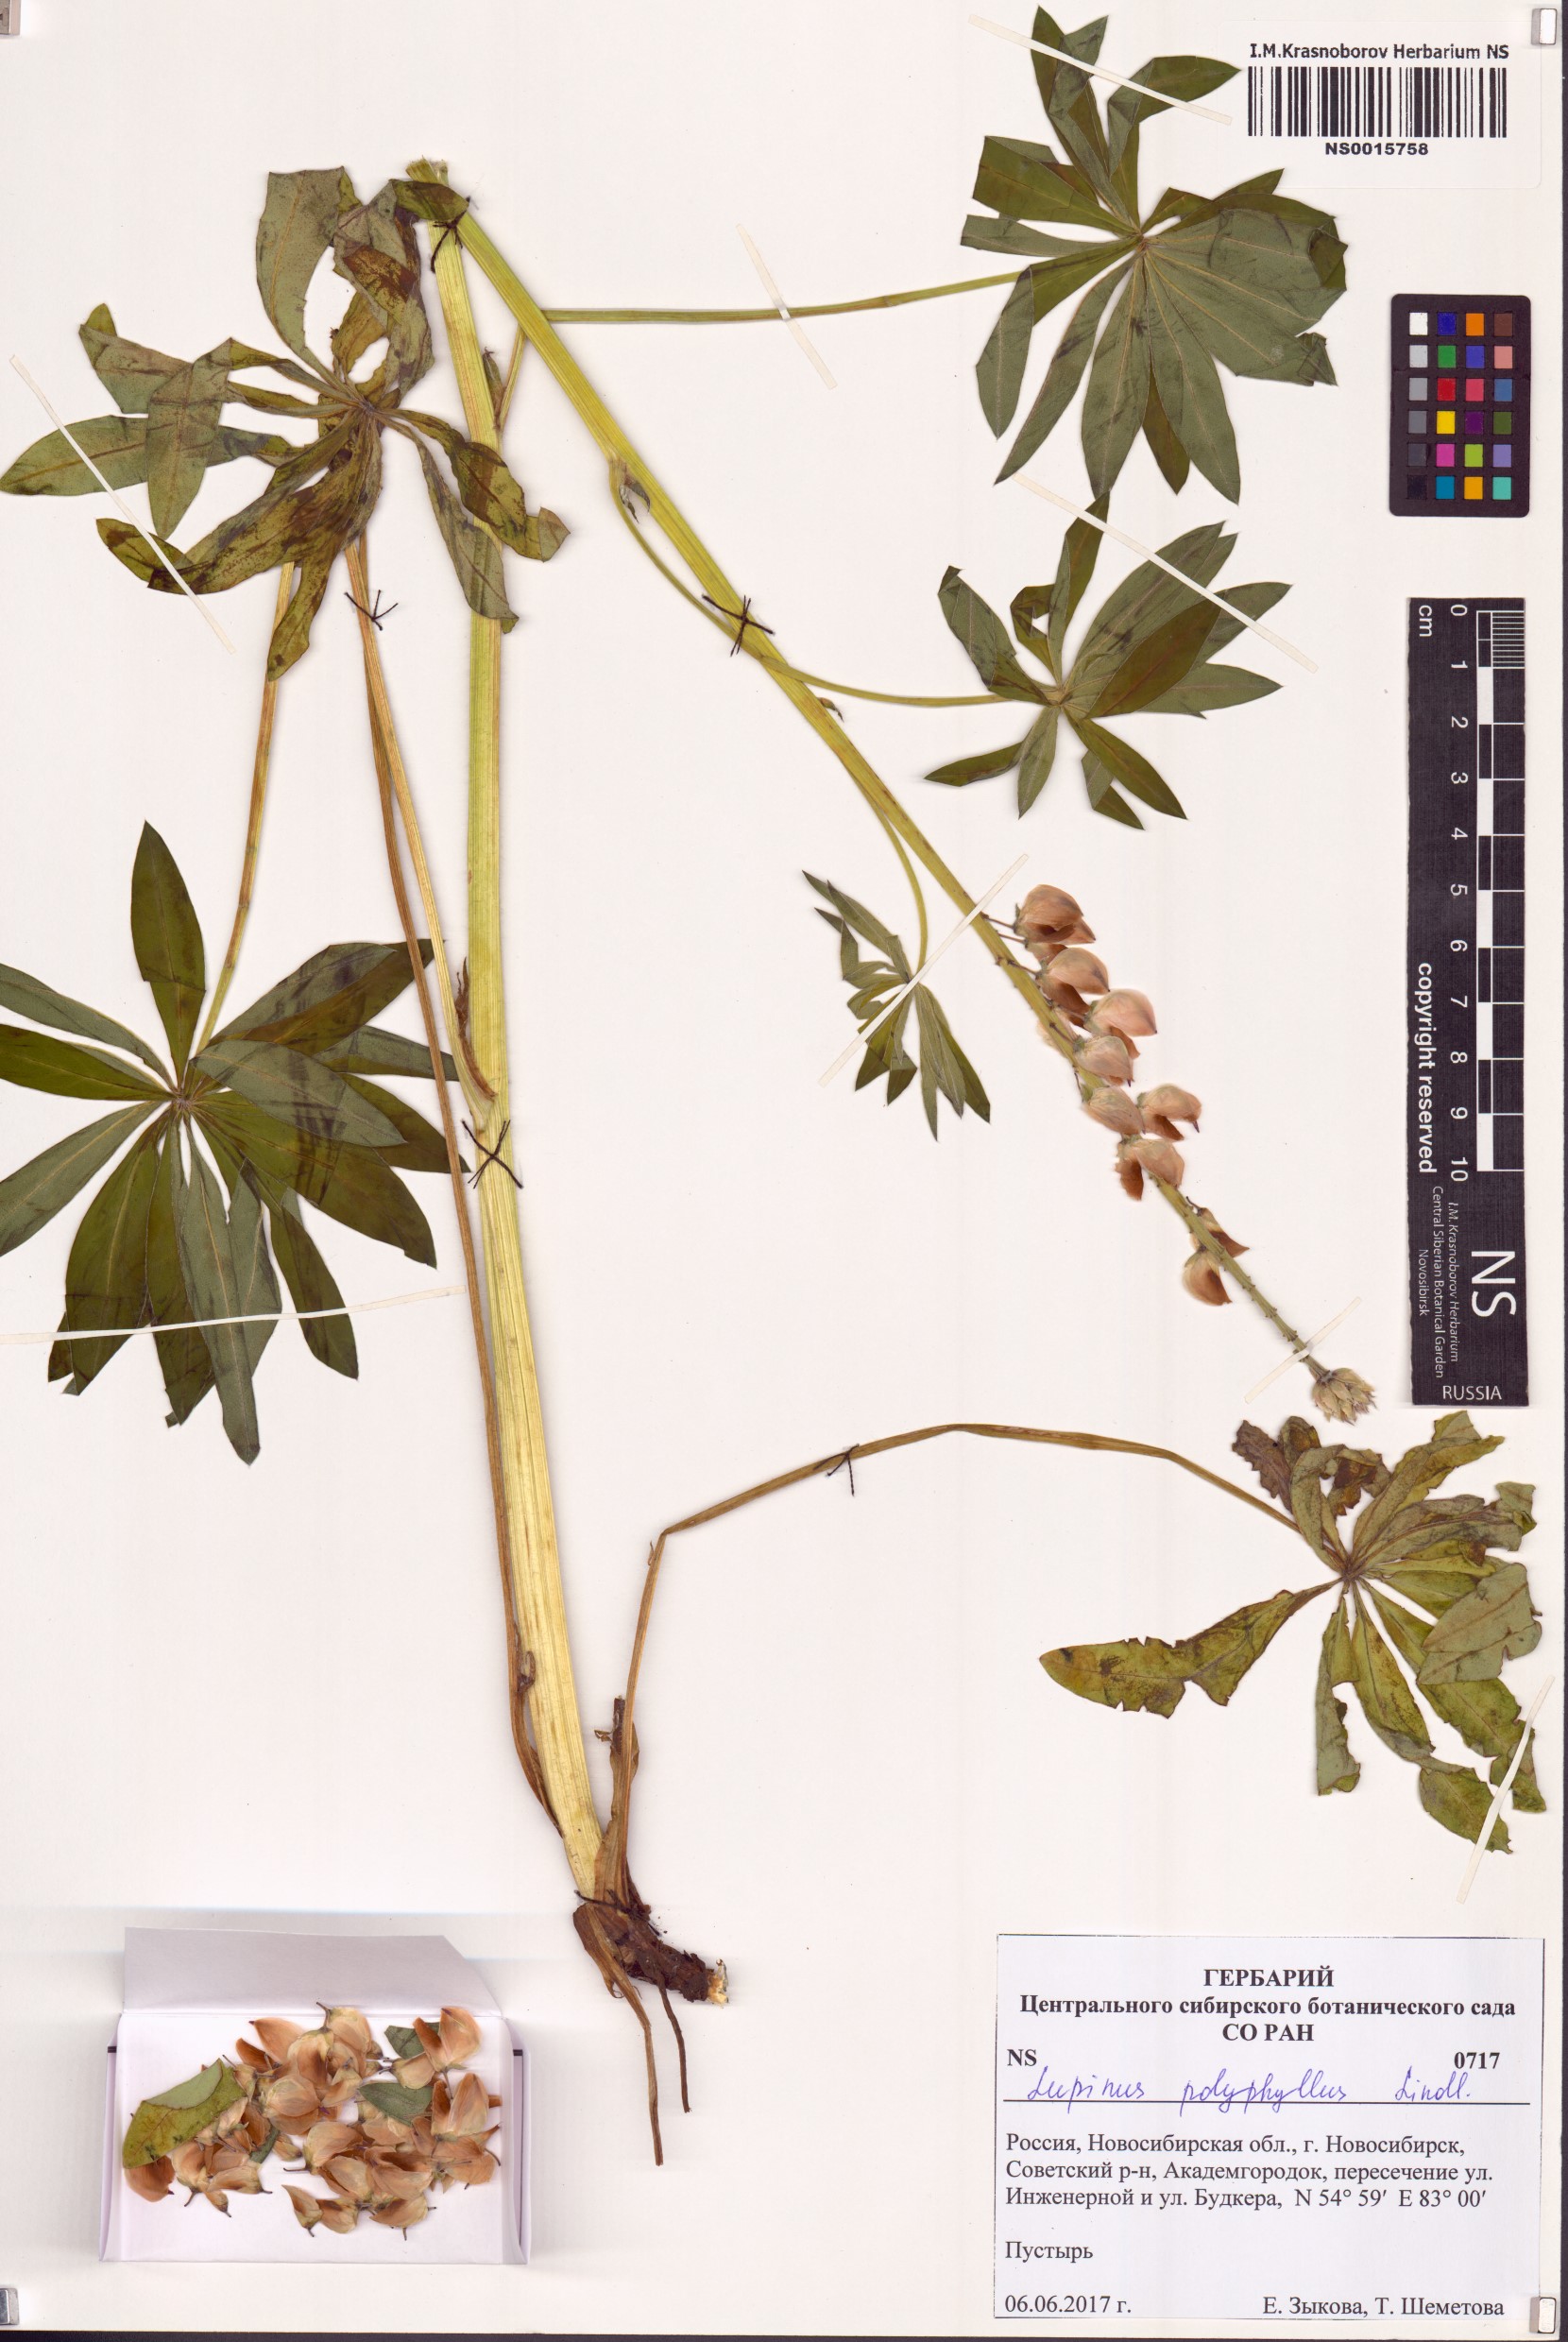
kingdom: Plantae
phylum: Tracheophyta
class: Magnoliopsida
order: Fabales
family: Fabaceae
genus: Lupinus
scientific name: Lupinus polyphyllus
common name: Garden lupin
